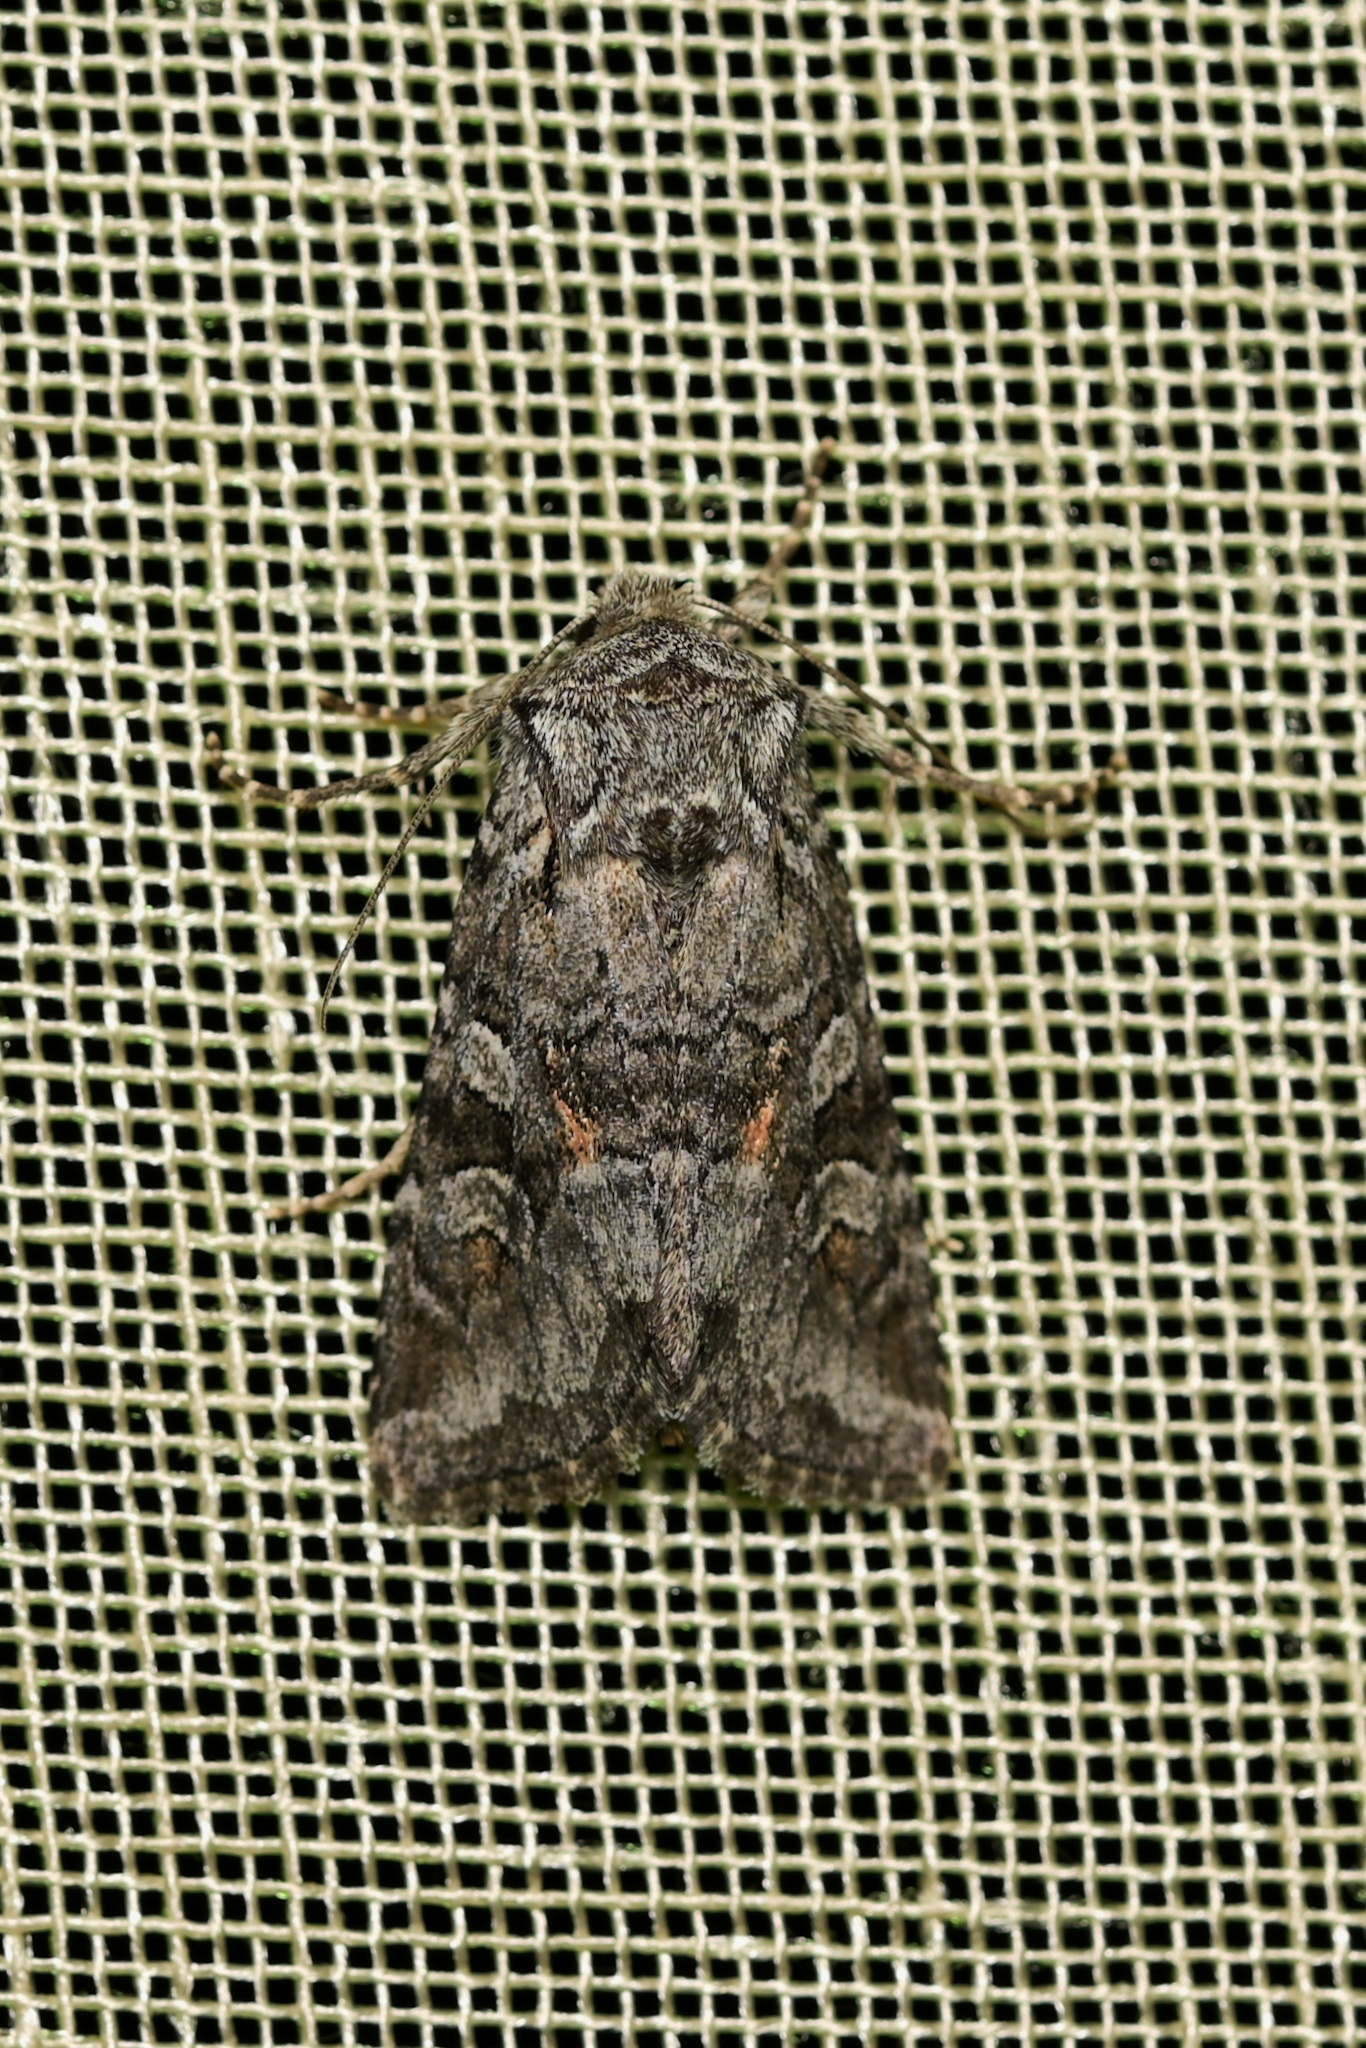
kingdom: Animalia
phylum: Arthropoda
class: Insecta
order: Lepidoptera
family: Noctuidae
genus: Lasionycta
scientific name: Lasionycta Lasionhada proxima
